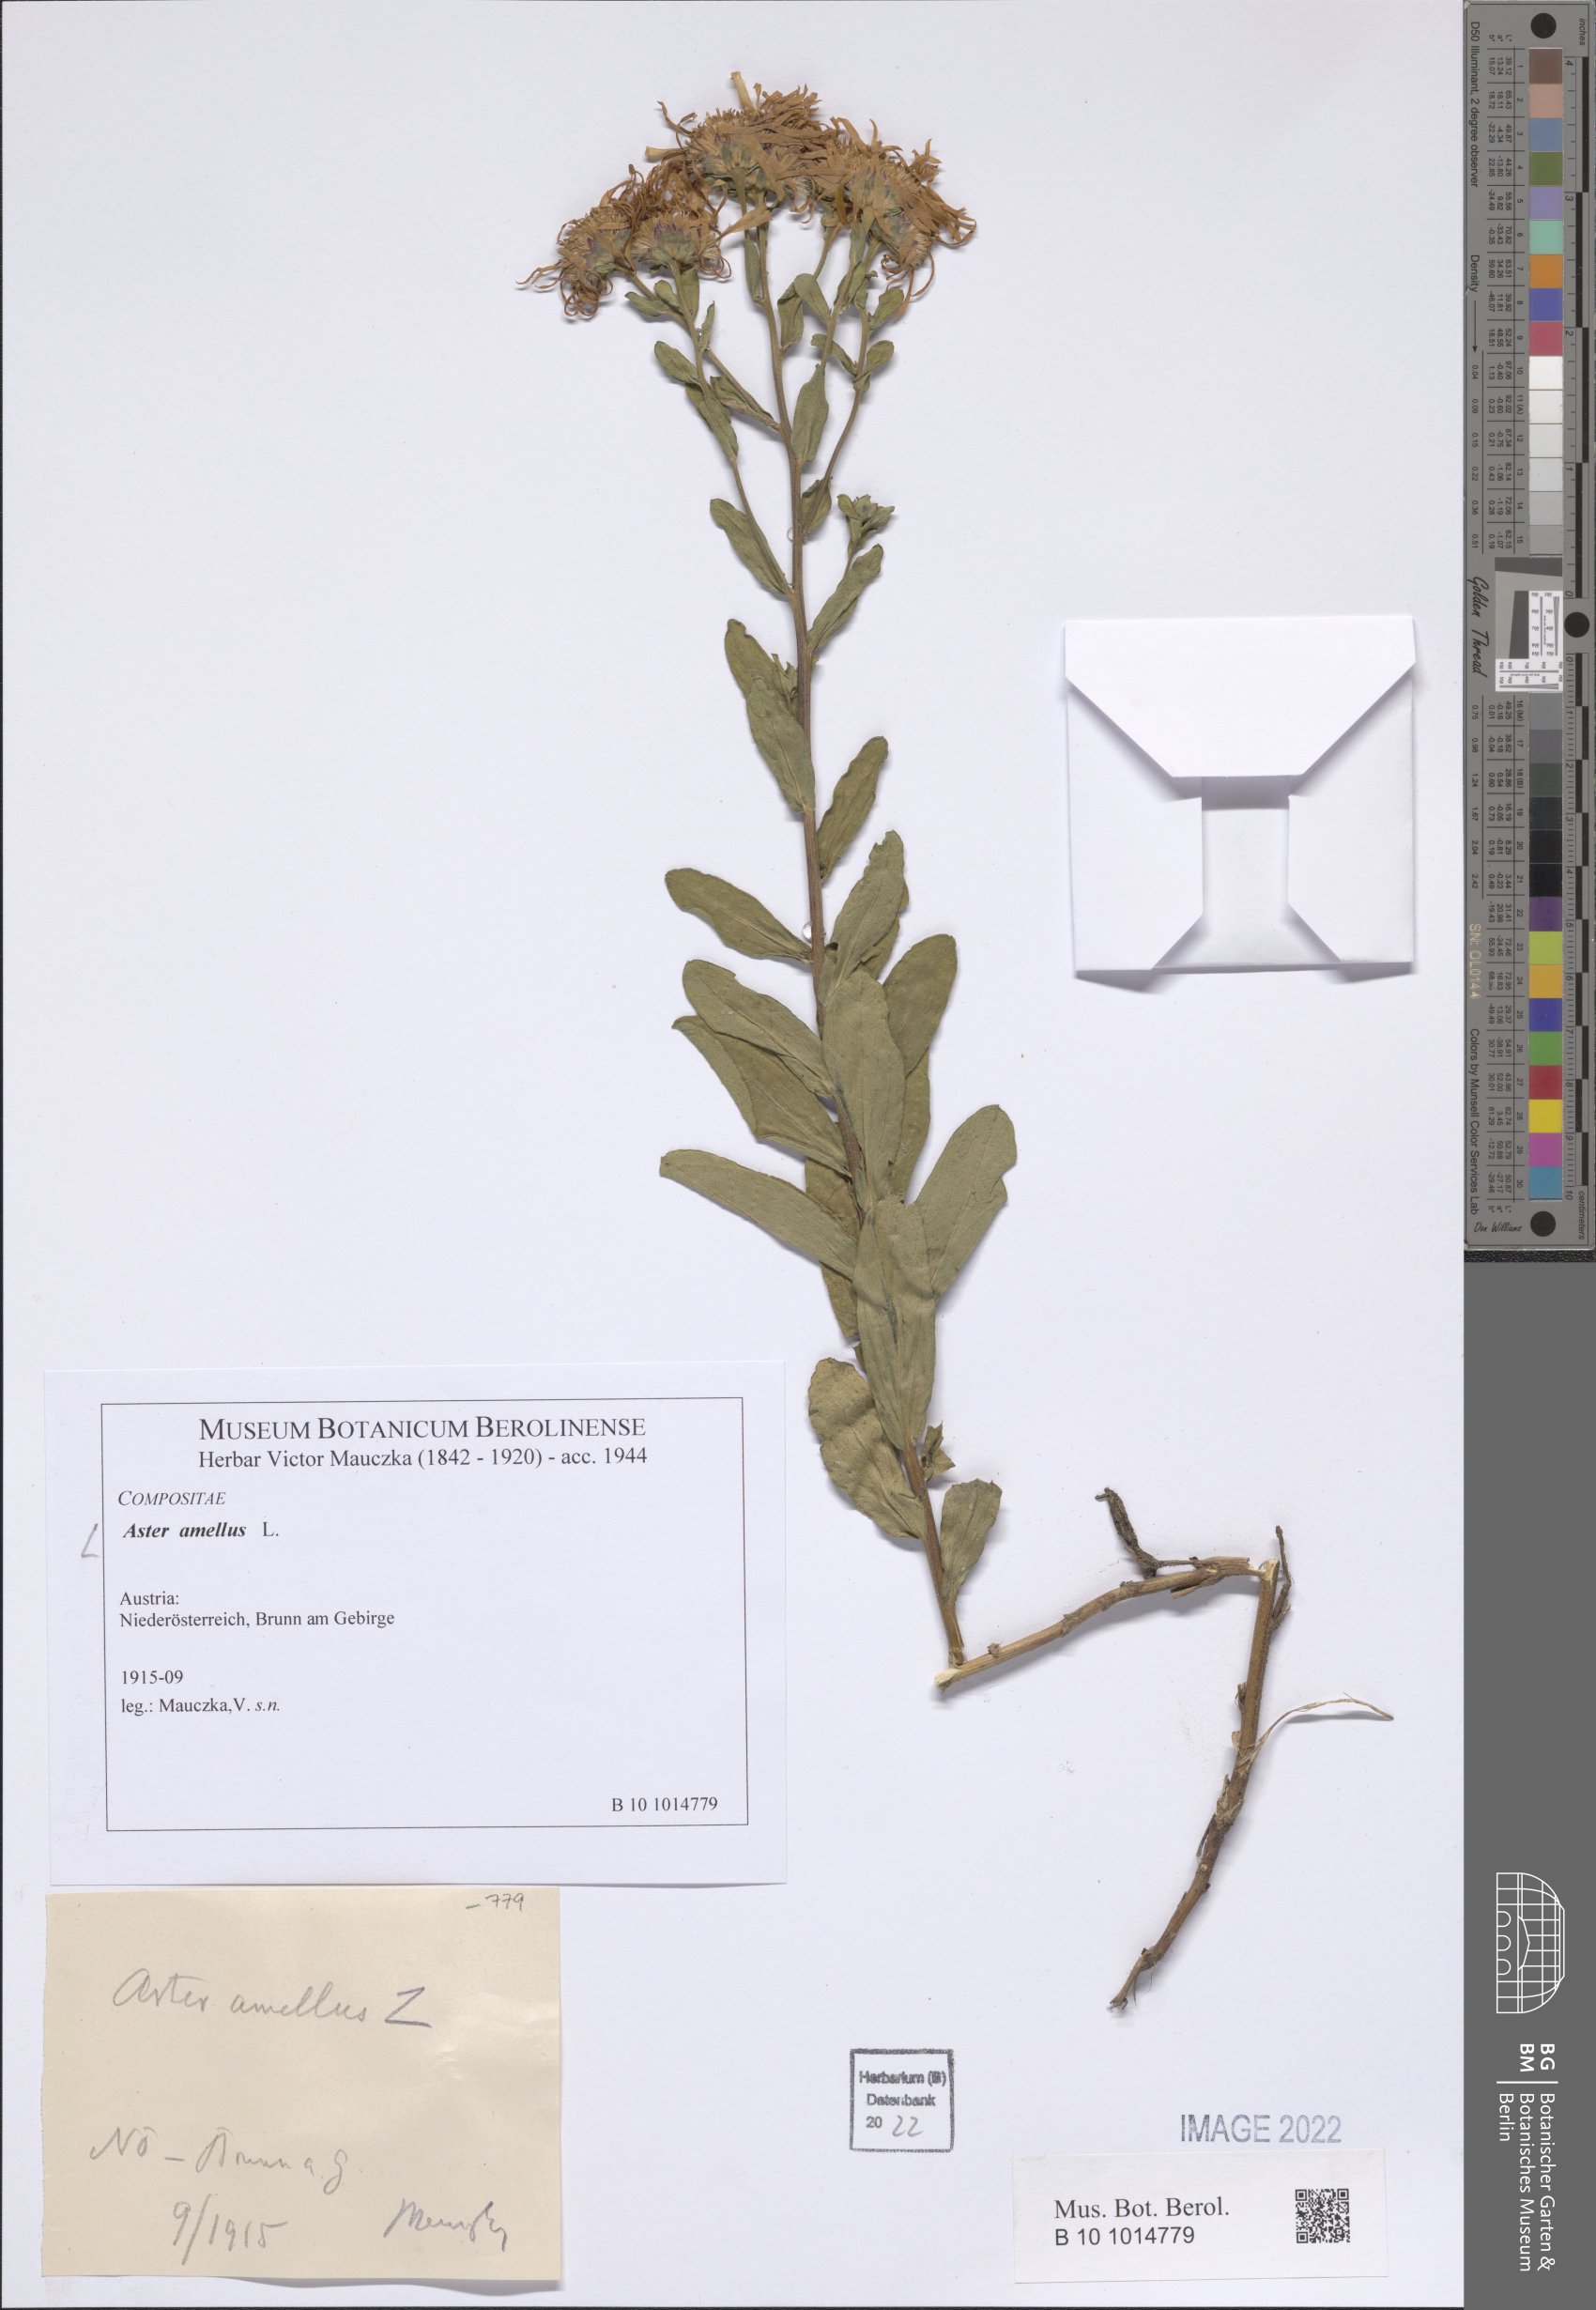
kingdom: Plantae
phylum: Tracheophyta
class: Magnoliopsida
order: Asterales
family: Asteraceae
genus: Aster
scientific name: Aster amellus
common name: European michaelmas daisy
